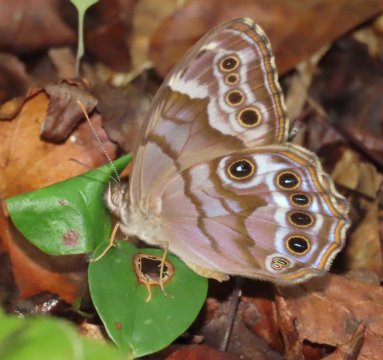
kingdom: Animalia
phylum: Arthropoda
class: Insecta
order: Lepidoptera
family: Nymphalidae
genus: Enodia
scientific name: Enodia portlandia
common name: Southern Pearly Eye
